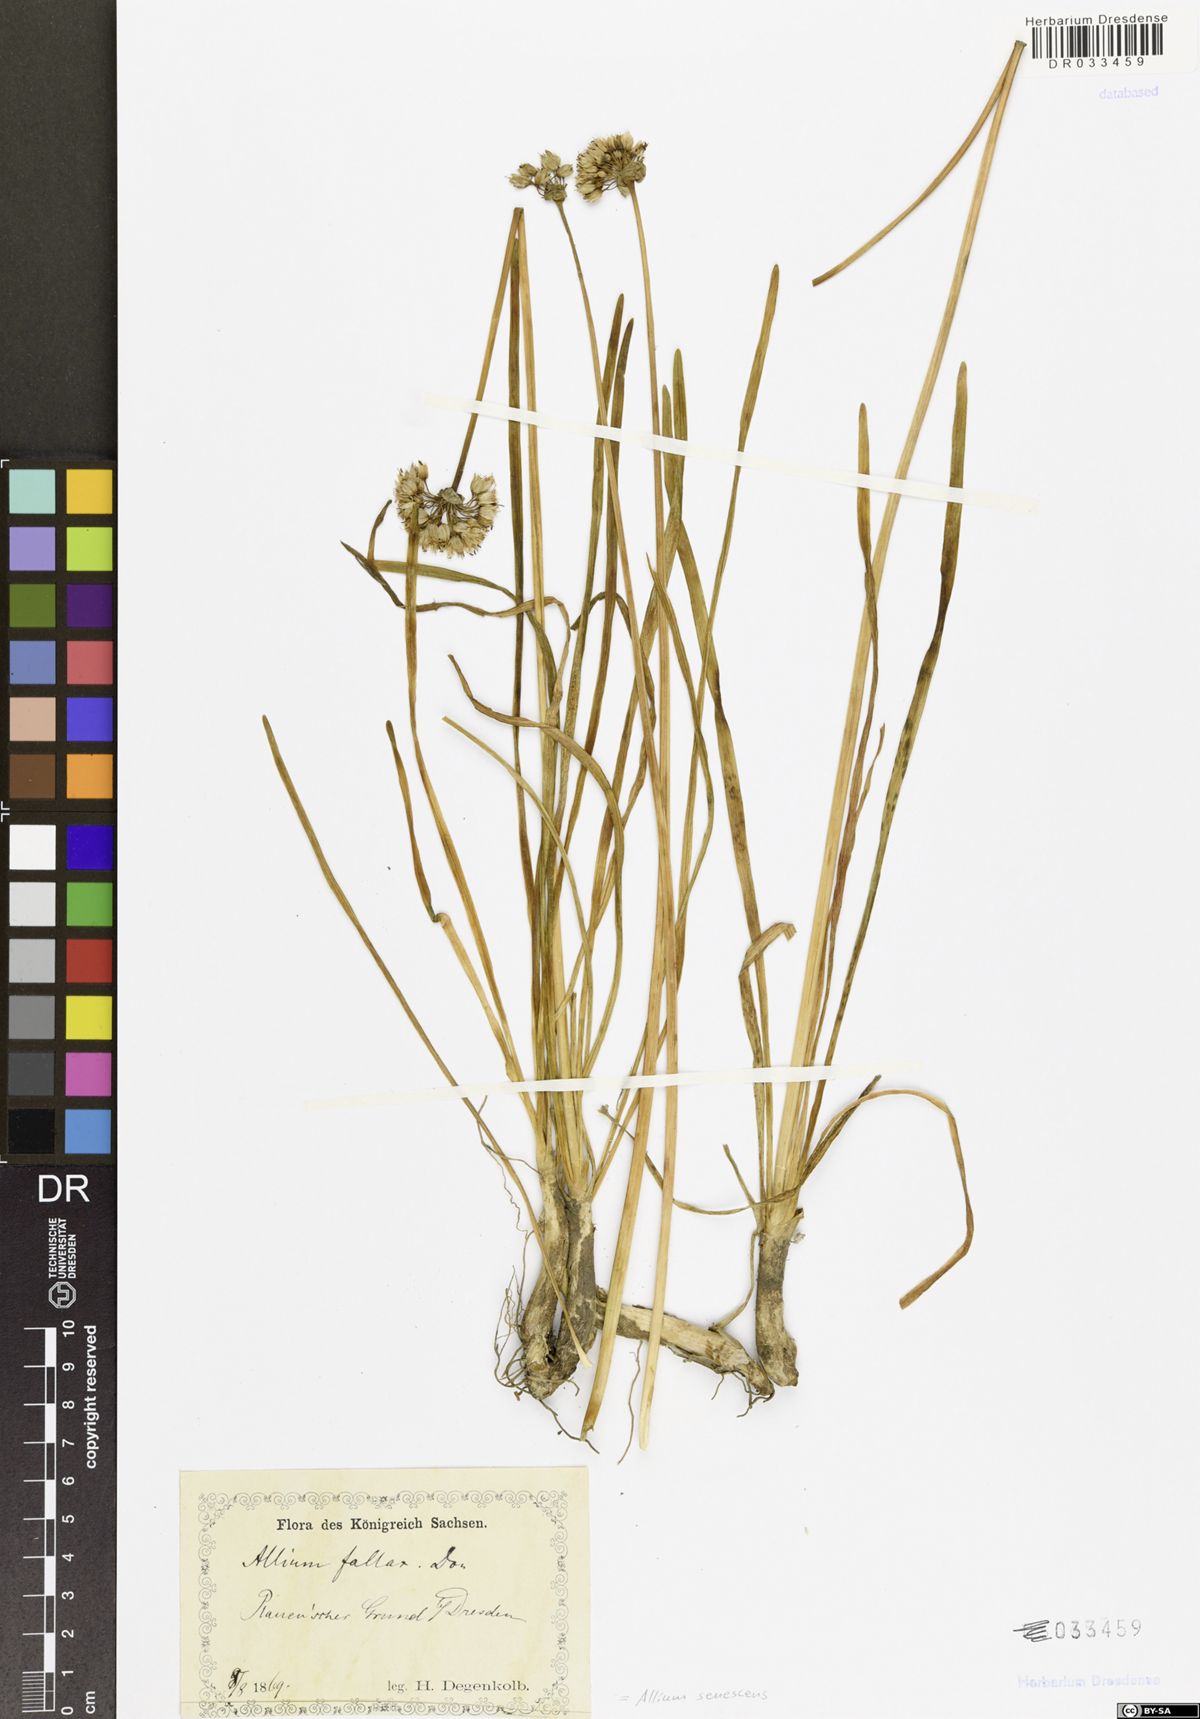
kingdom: Plantae
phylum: Tracheophyta
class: Liliopsida
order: Asparagales
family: Amaryllidaceae
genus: Allium
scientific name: Allium senescens
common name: German garlic
